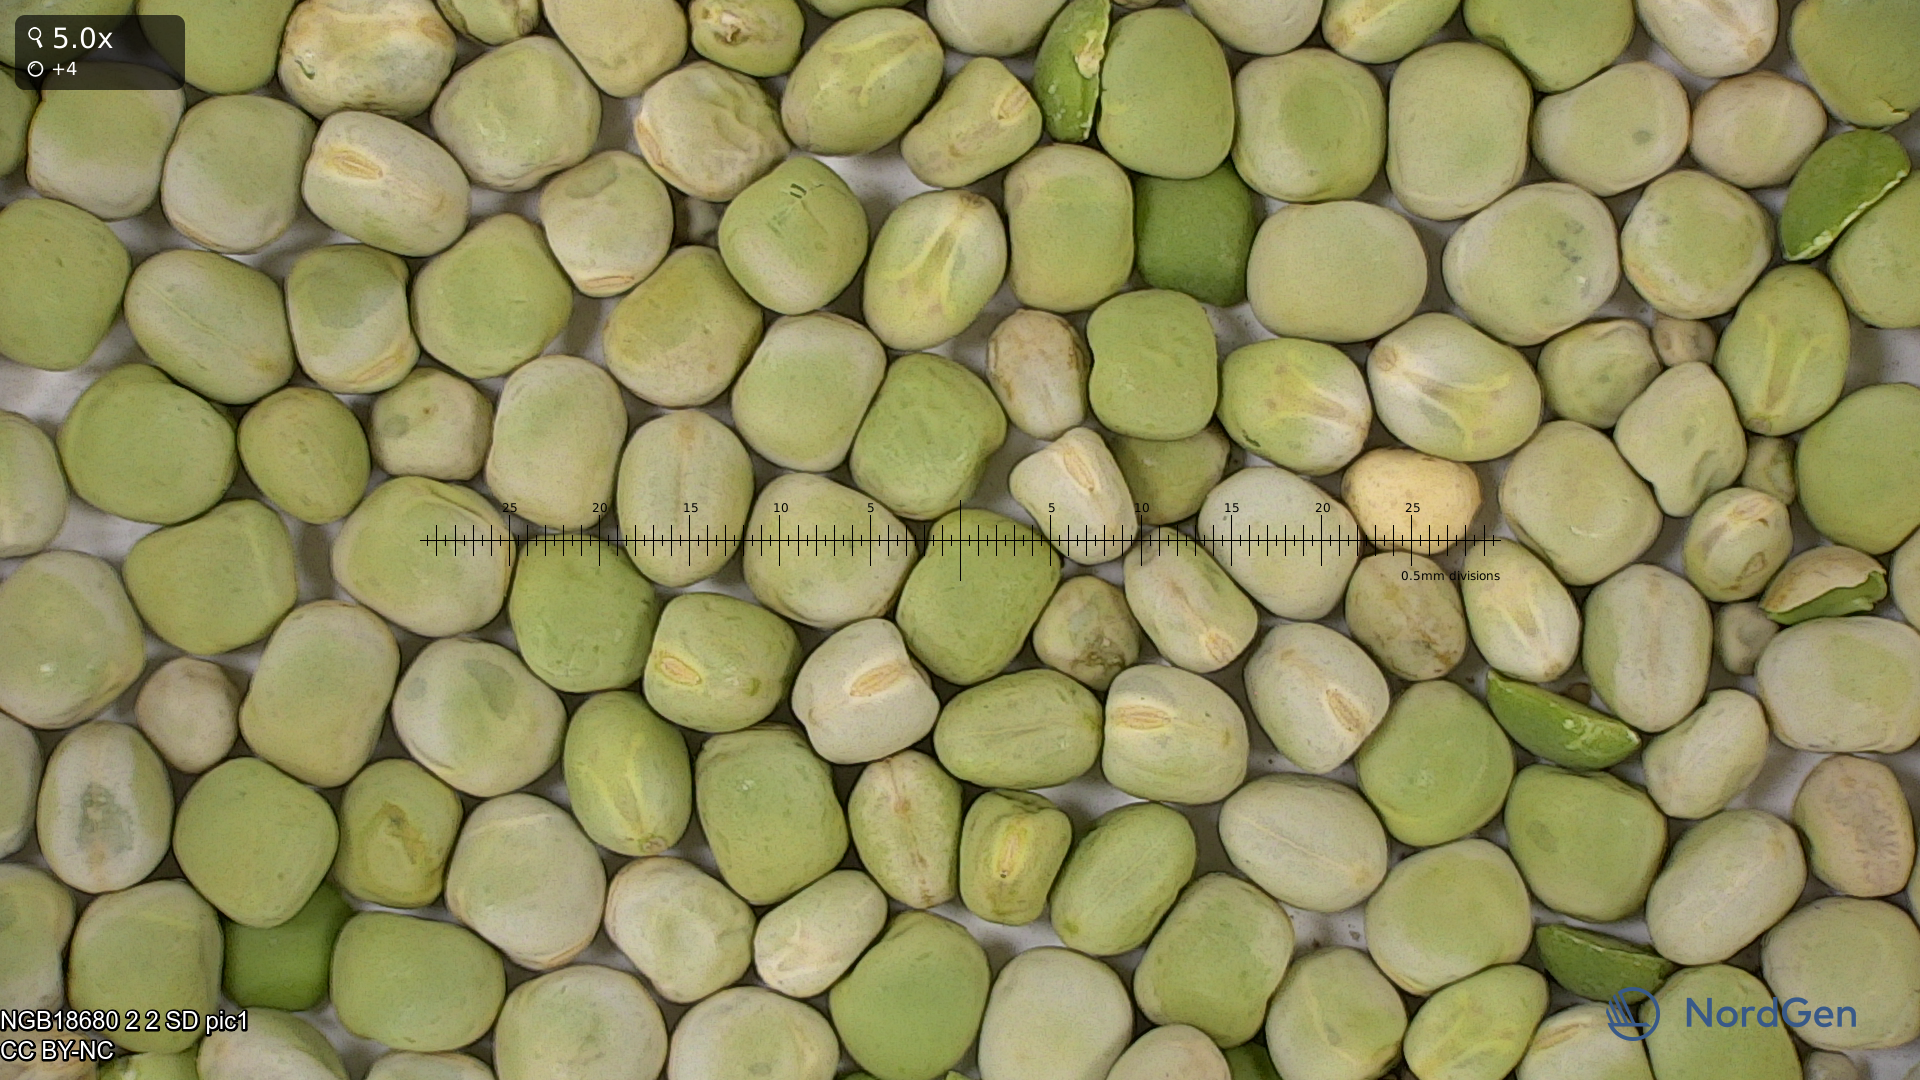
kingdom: Plantae
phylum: Tracheophyta
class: Magnoliopsida
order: Fabales
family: Fabaceae
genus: Lathyrus
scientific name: Lathyrus oleraceus
